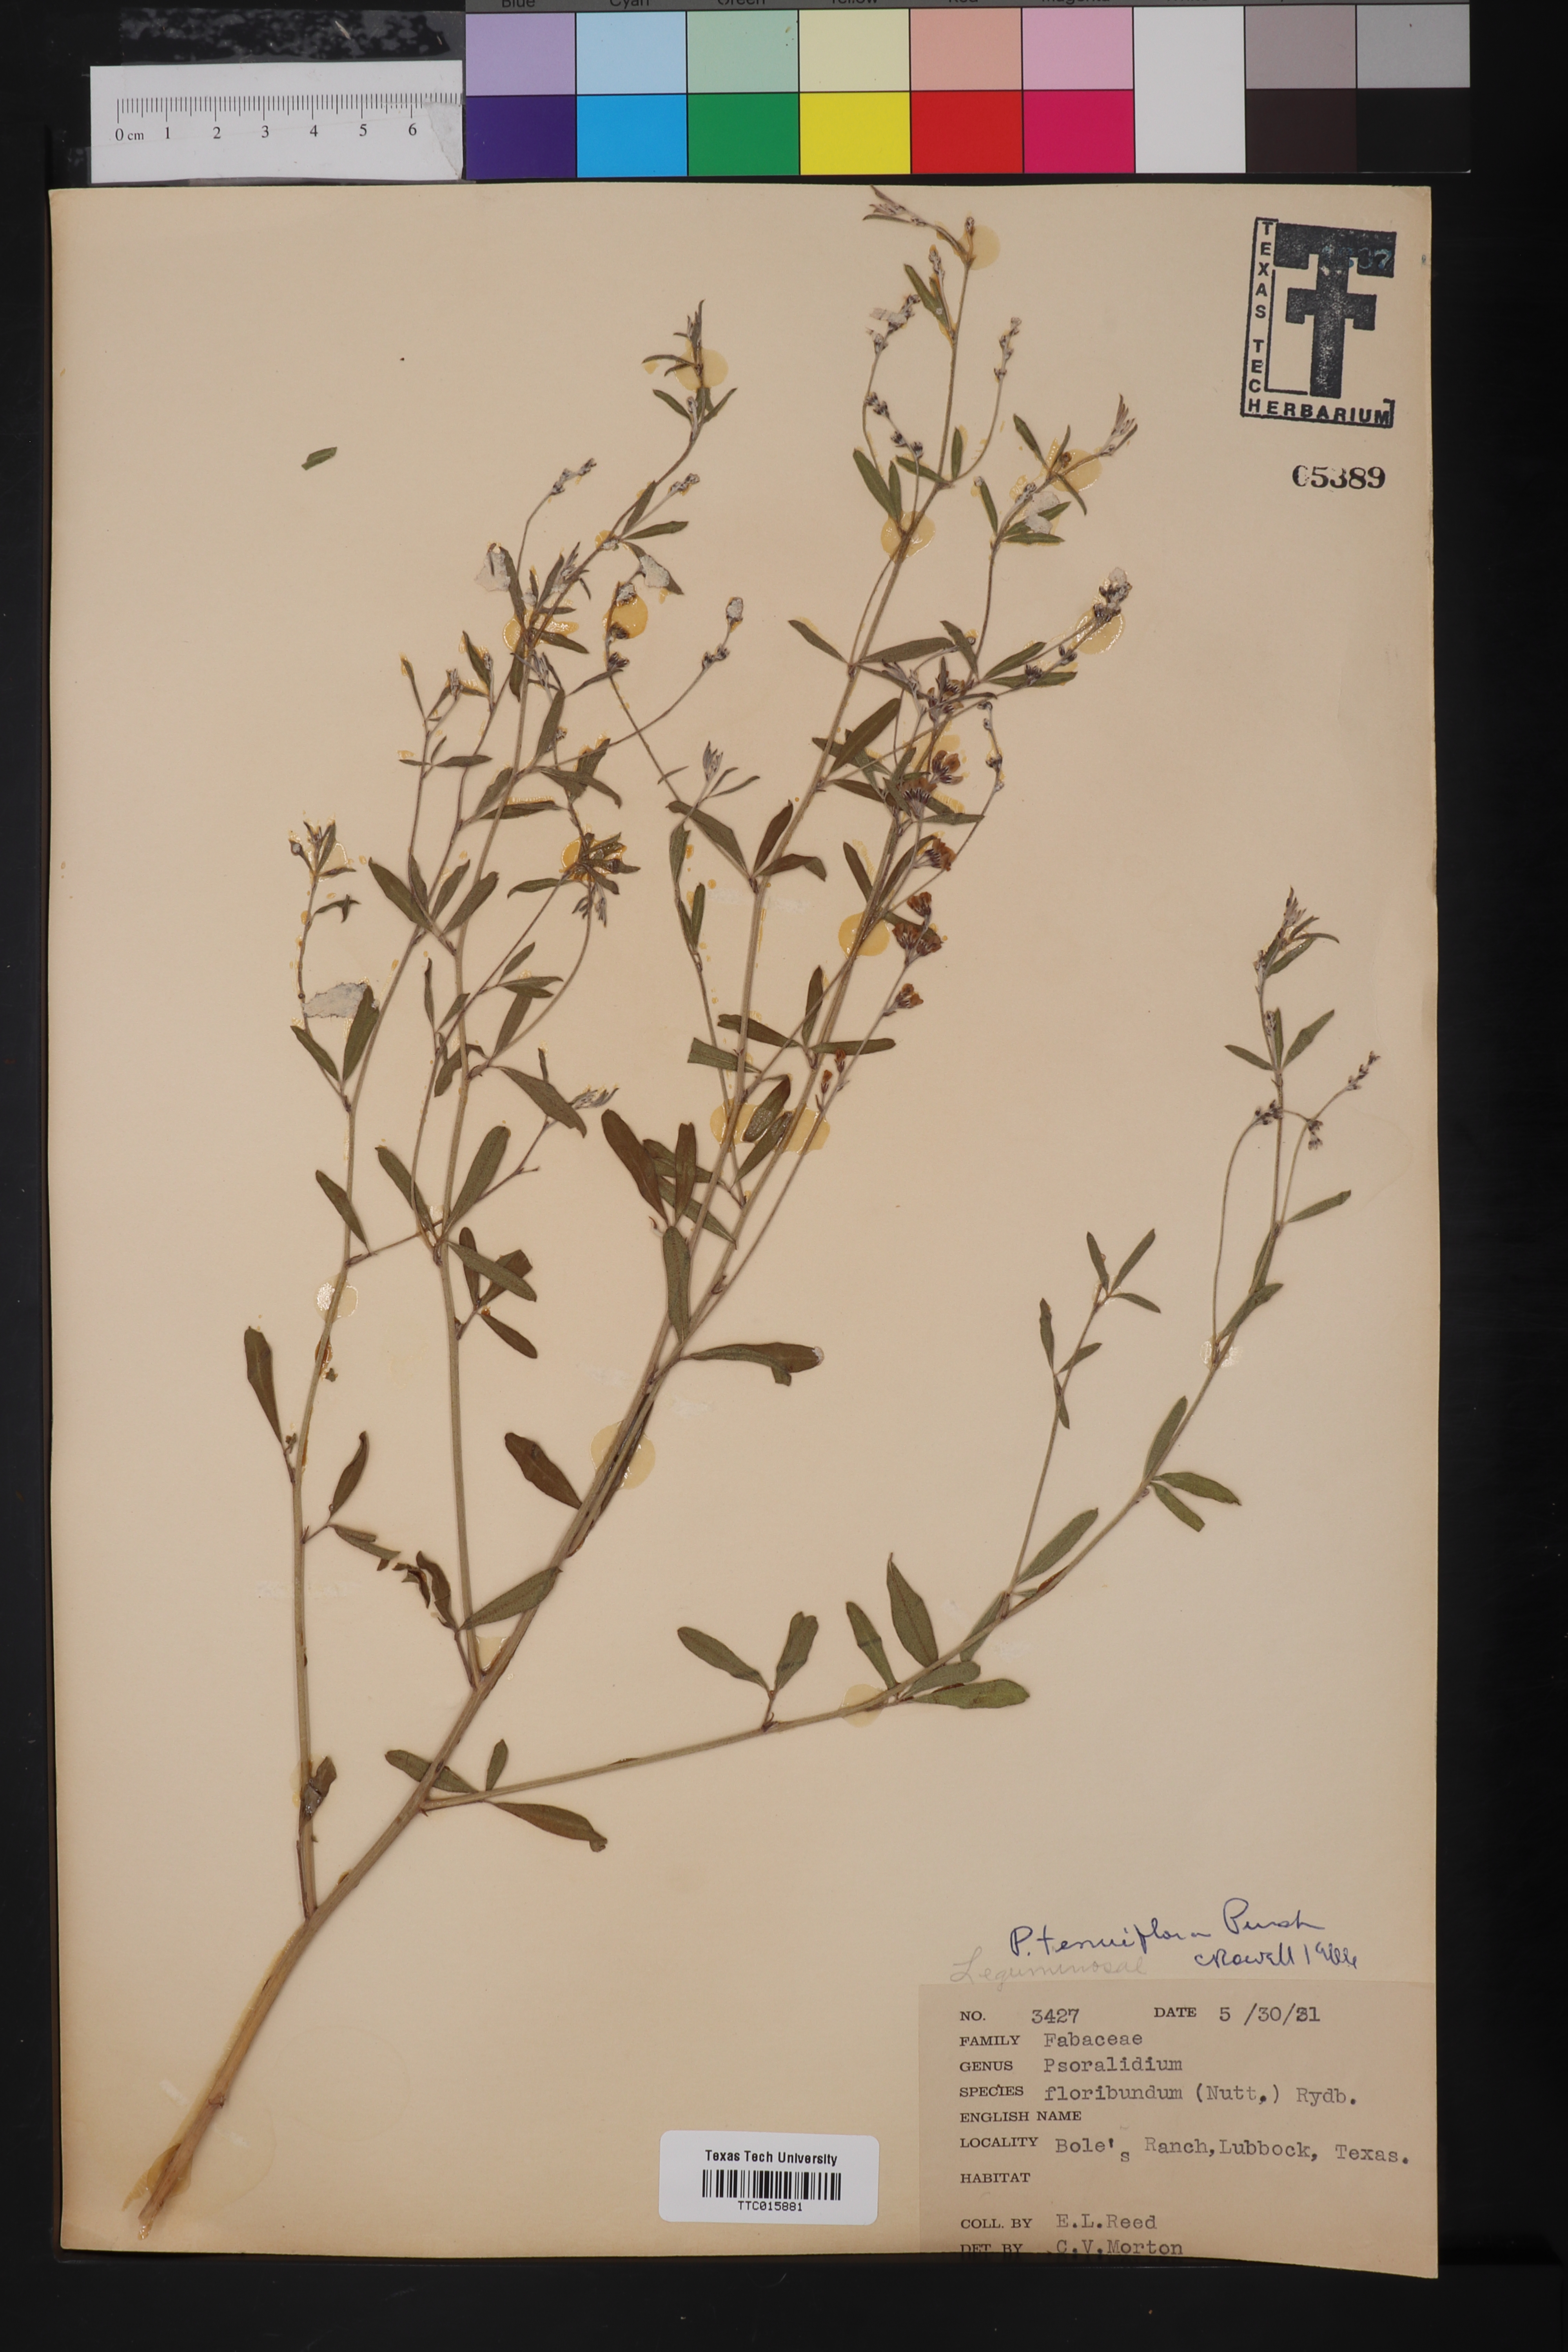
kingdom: Plantae
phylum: Tracheophyta
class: Magnoliopsida
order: Fabales
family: Fabaceae
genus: Pediomelum
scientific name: Pediomelum tenuiflorum
